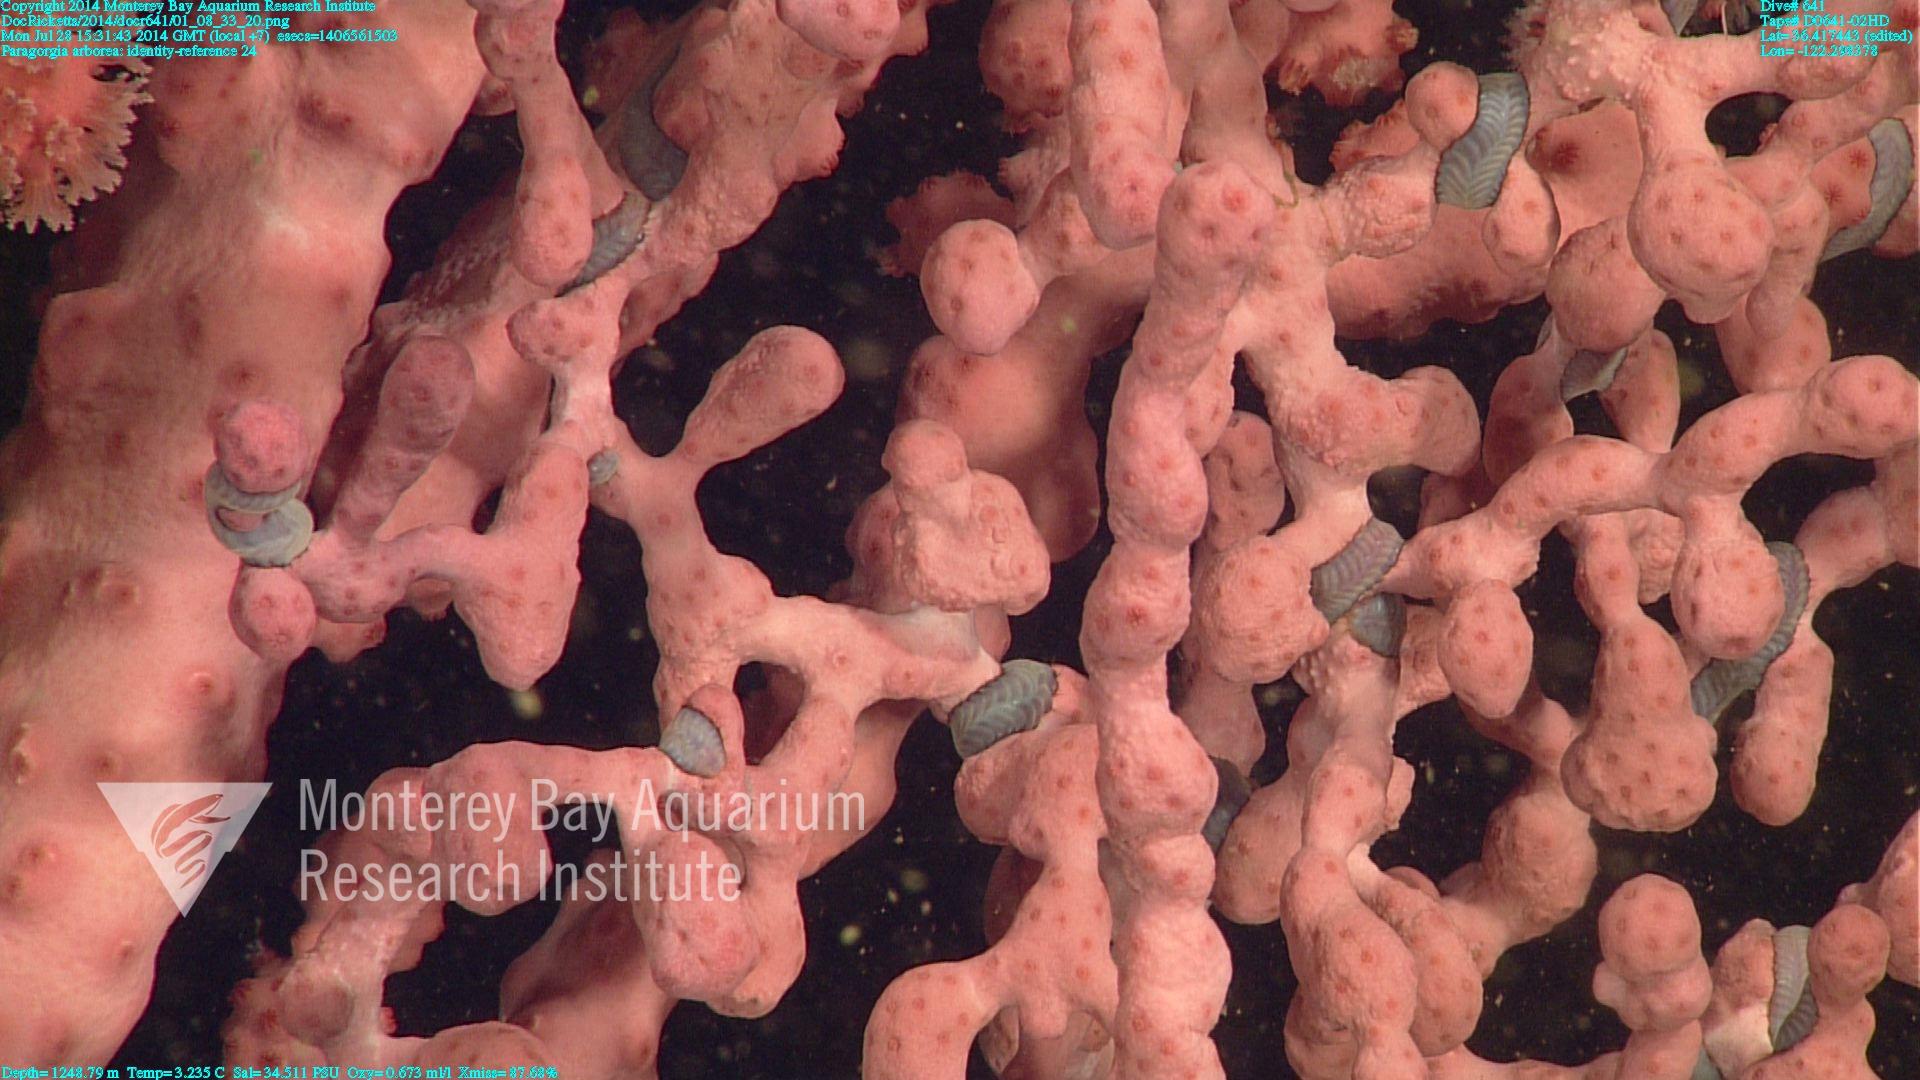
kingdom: Animalia
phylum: Cnidaria
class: Anthozoa
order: Scleralcyonacea
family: Coralliidae
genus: Paragorgia
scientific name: Paragorgia arborea
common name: Bubble gum coral
